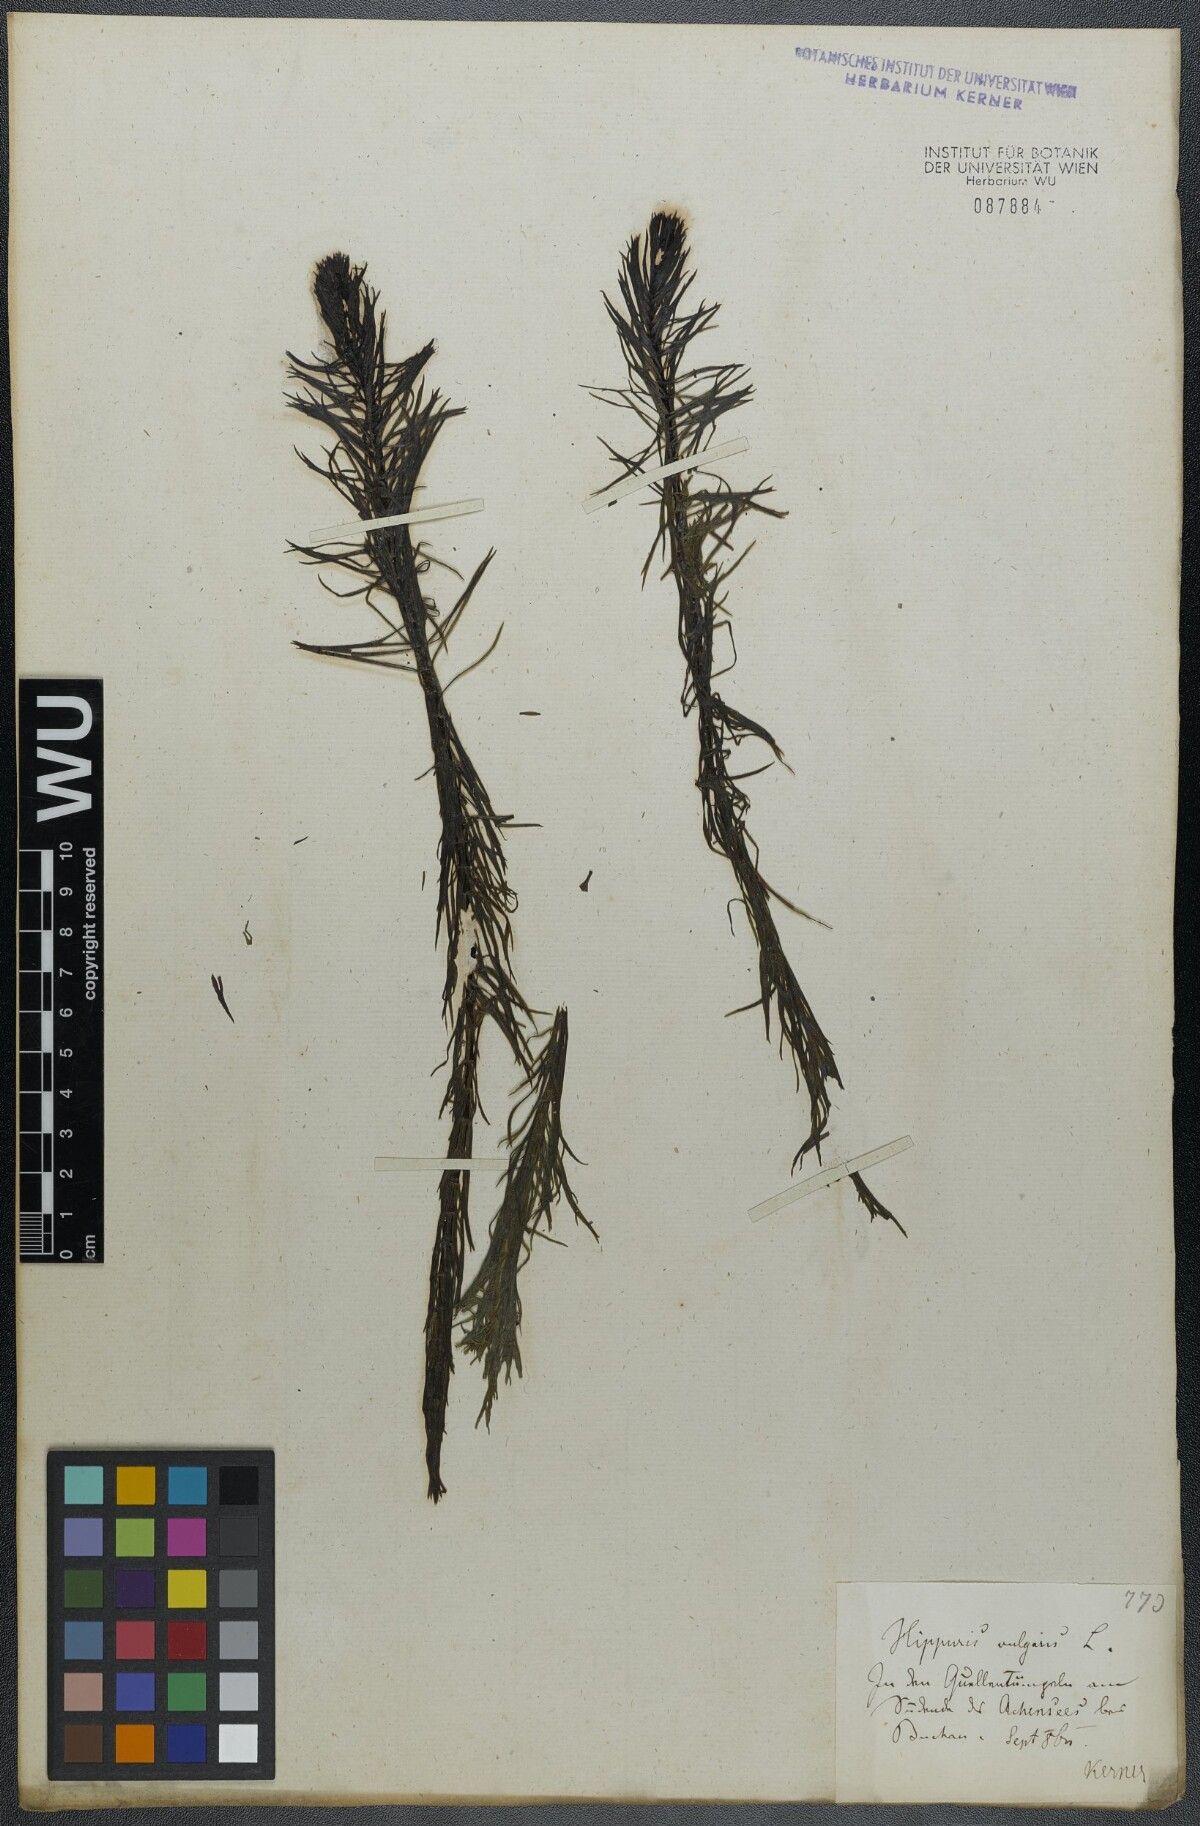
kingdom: Plantae
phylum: Tracheophyta
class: Magnoliopsida
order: Lamiales
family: Plantaginaceae
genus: Hippuris
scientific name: Hippuris vulgaris
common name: Mare's-tail
